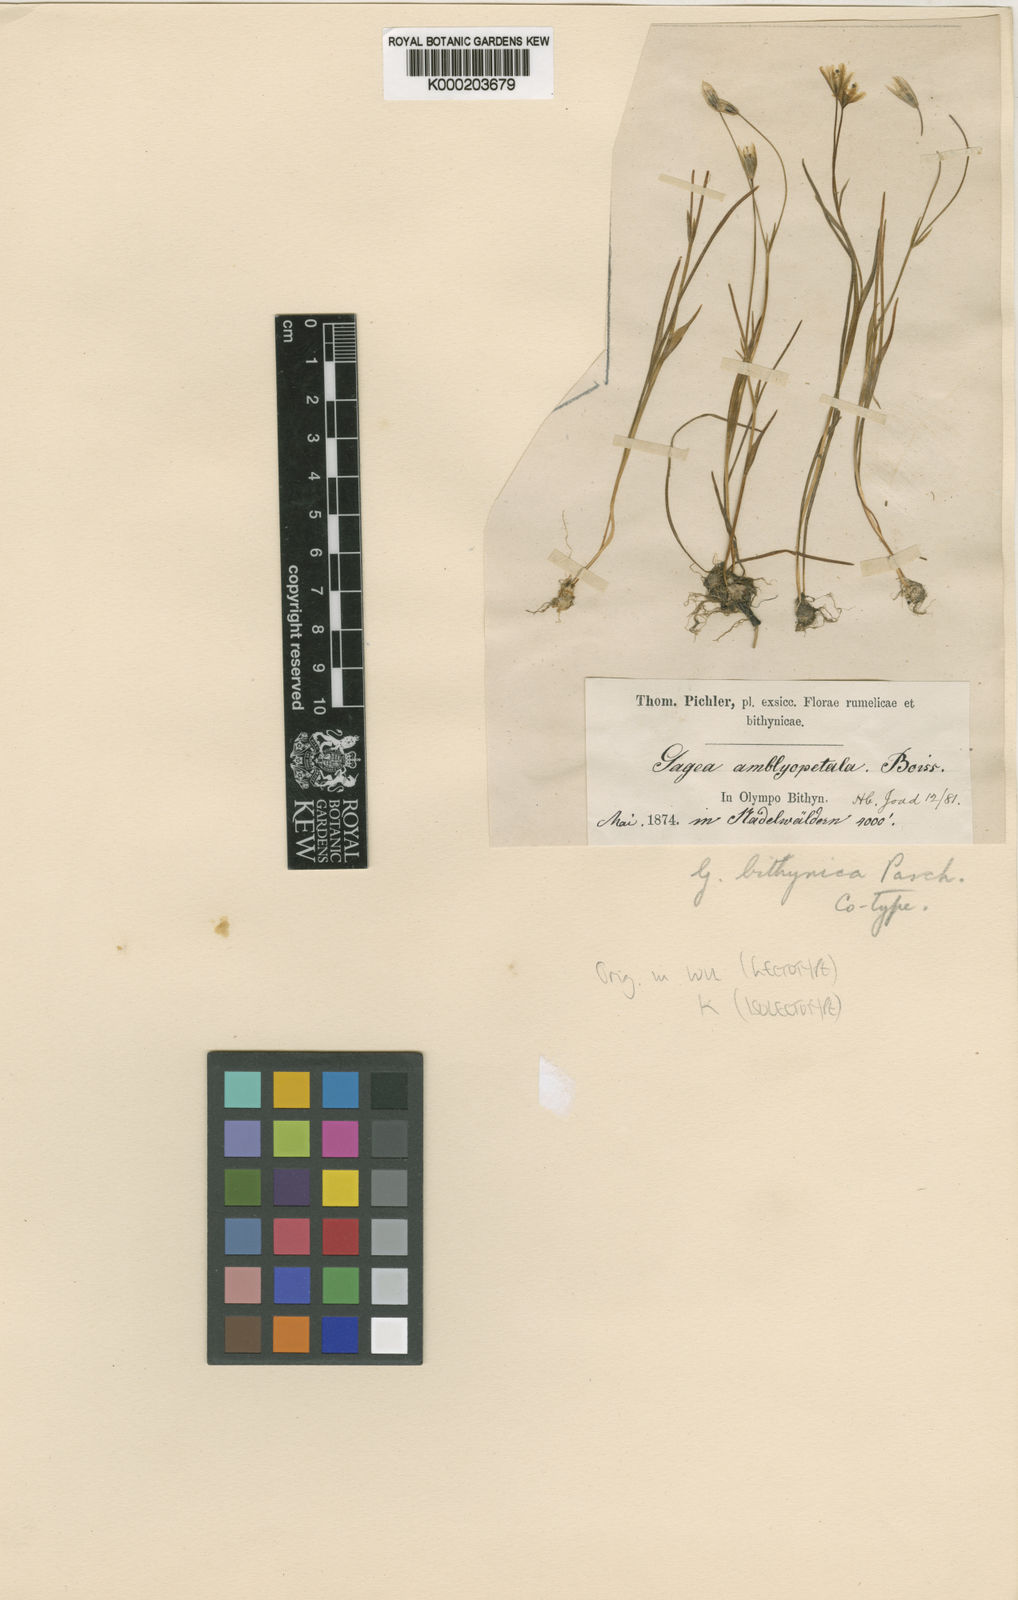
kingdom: Plantae
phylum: Tracheophyta
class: Liliopsida
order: Liliales
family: Liliaceae
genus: Gagea
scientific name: Gagea bithynica
